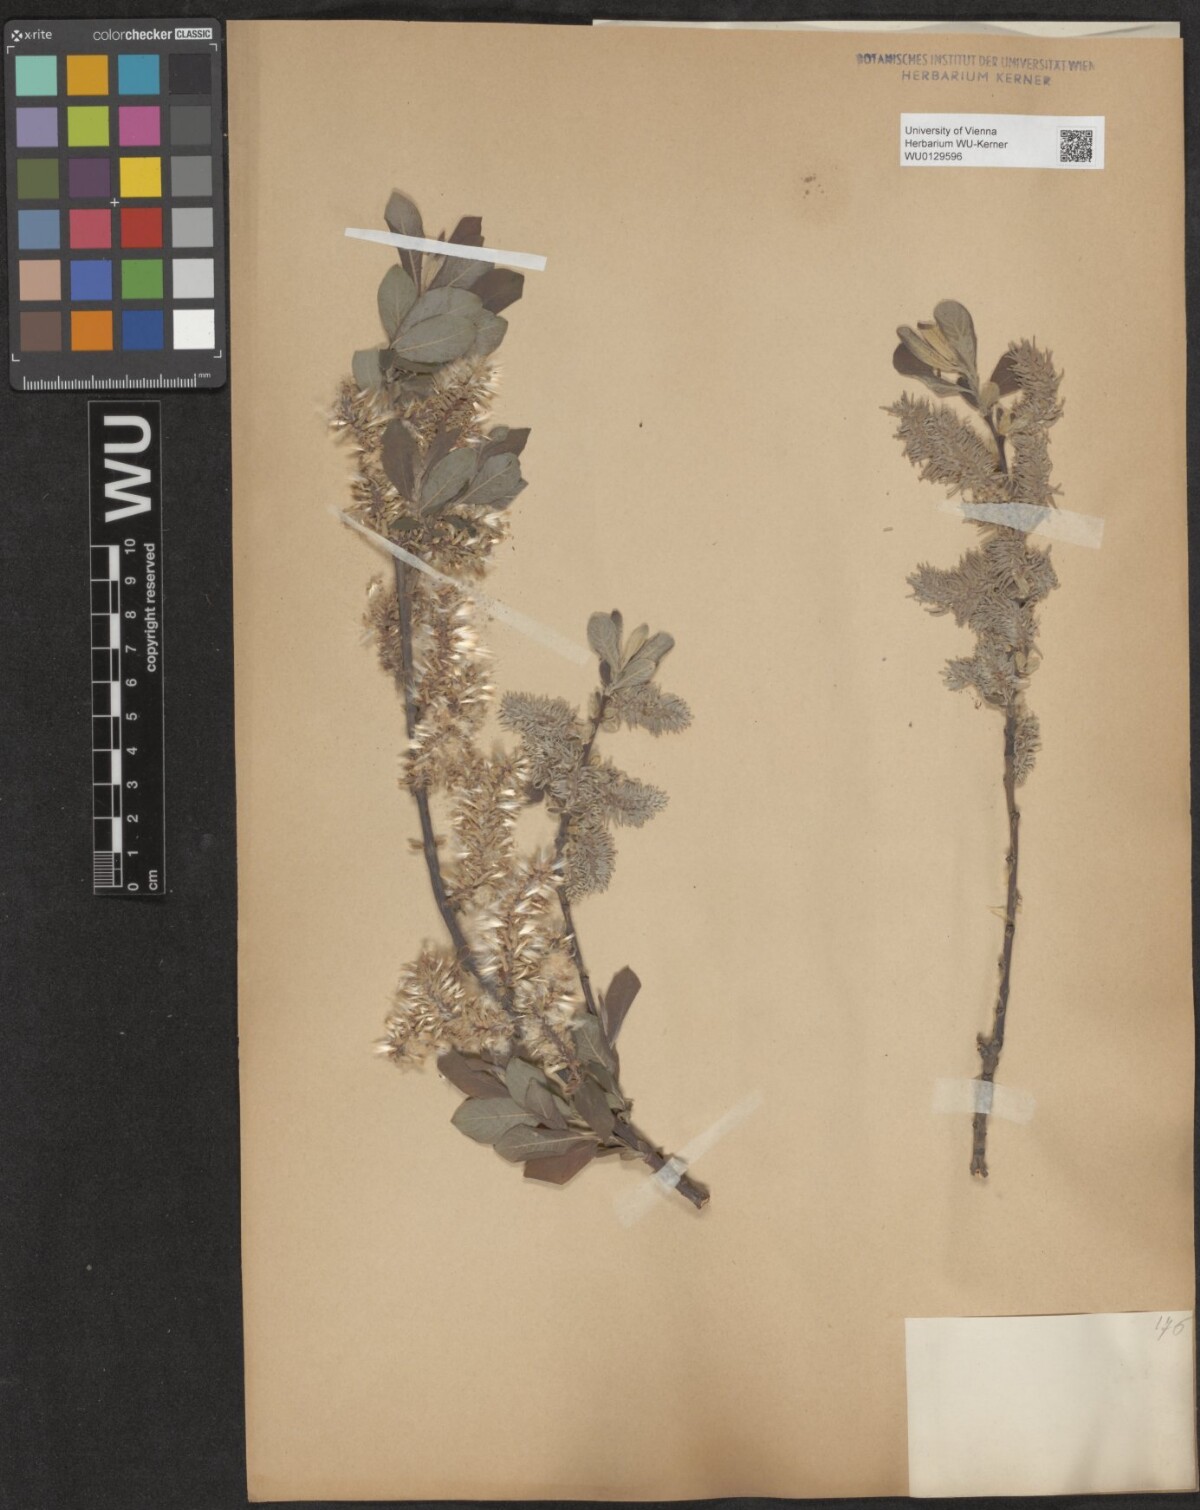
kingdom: Plantae
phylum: Tracheophyta
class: Magnoliopsida
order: Malpighiales
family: Salicaceae
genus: Salix
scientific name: Salix caprea
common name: Goat willow
